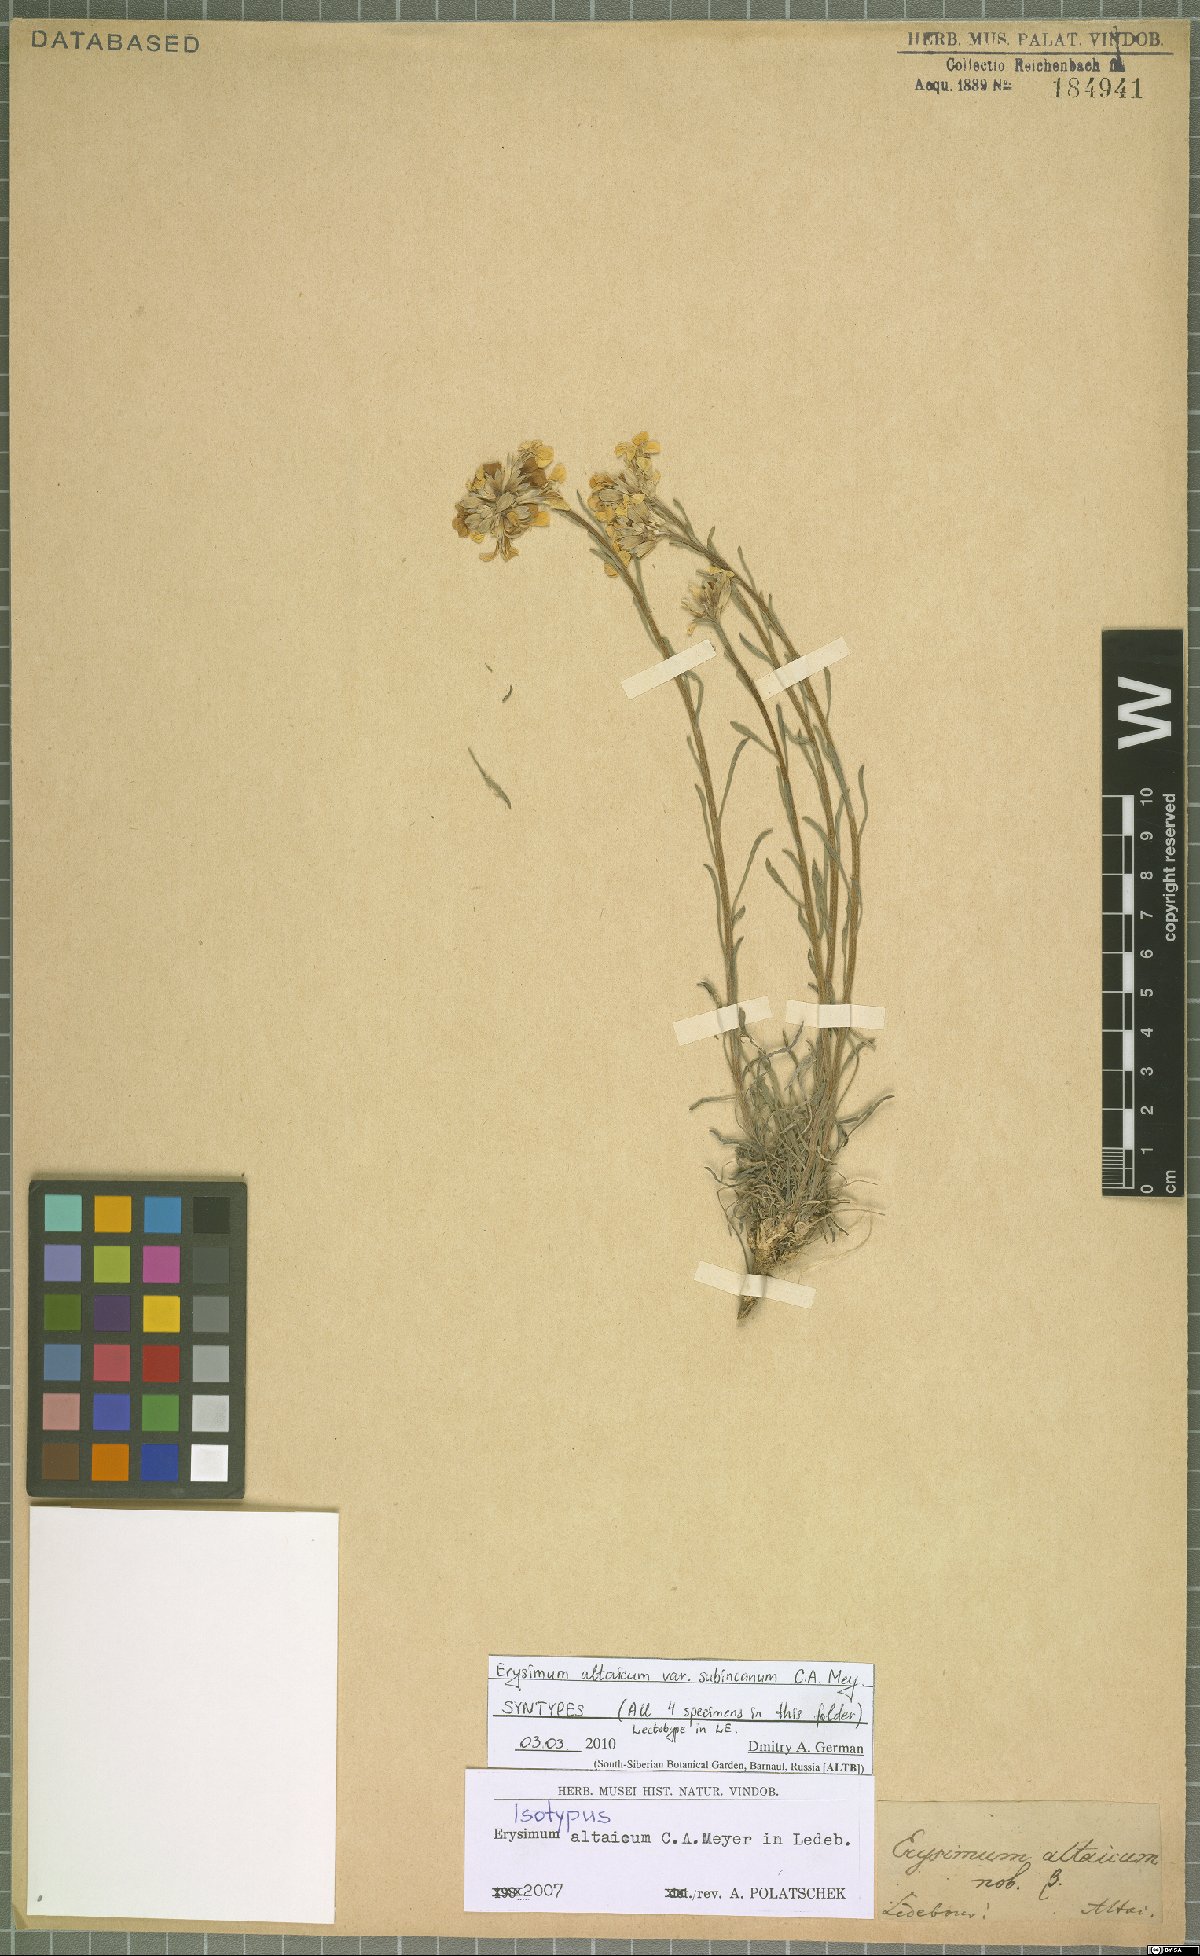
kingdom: Plantae
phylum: Tracheophyta
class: Magnoliopsida
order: Brassicales
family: Brassicaceae
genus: Erysimum
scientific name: Erysimum altaicum
